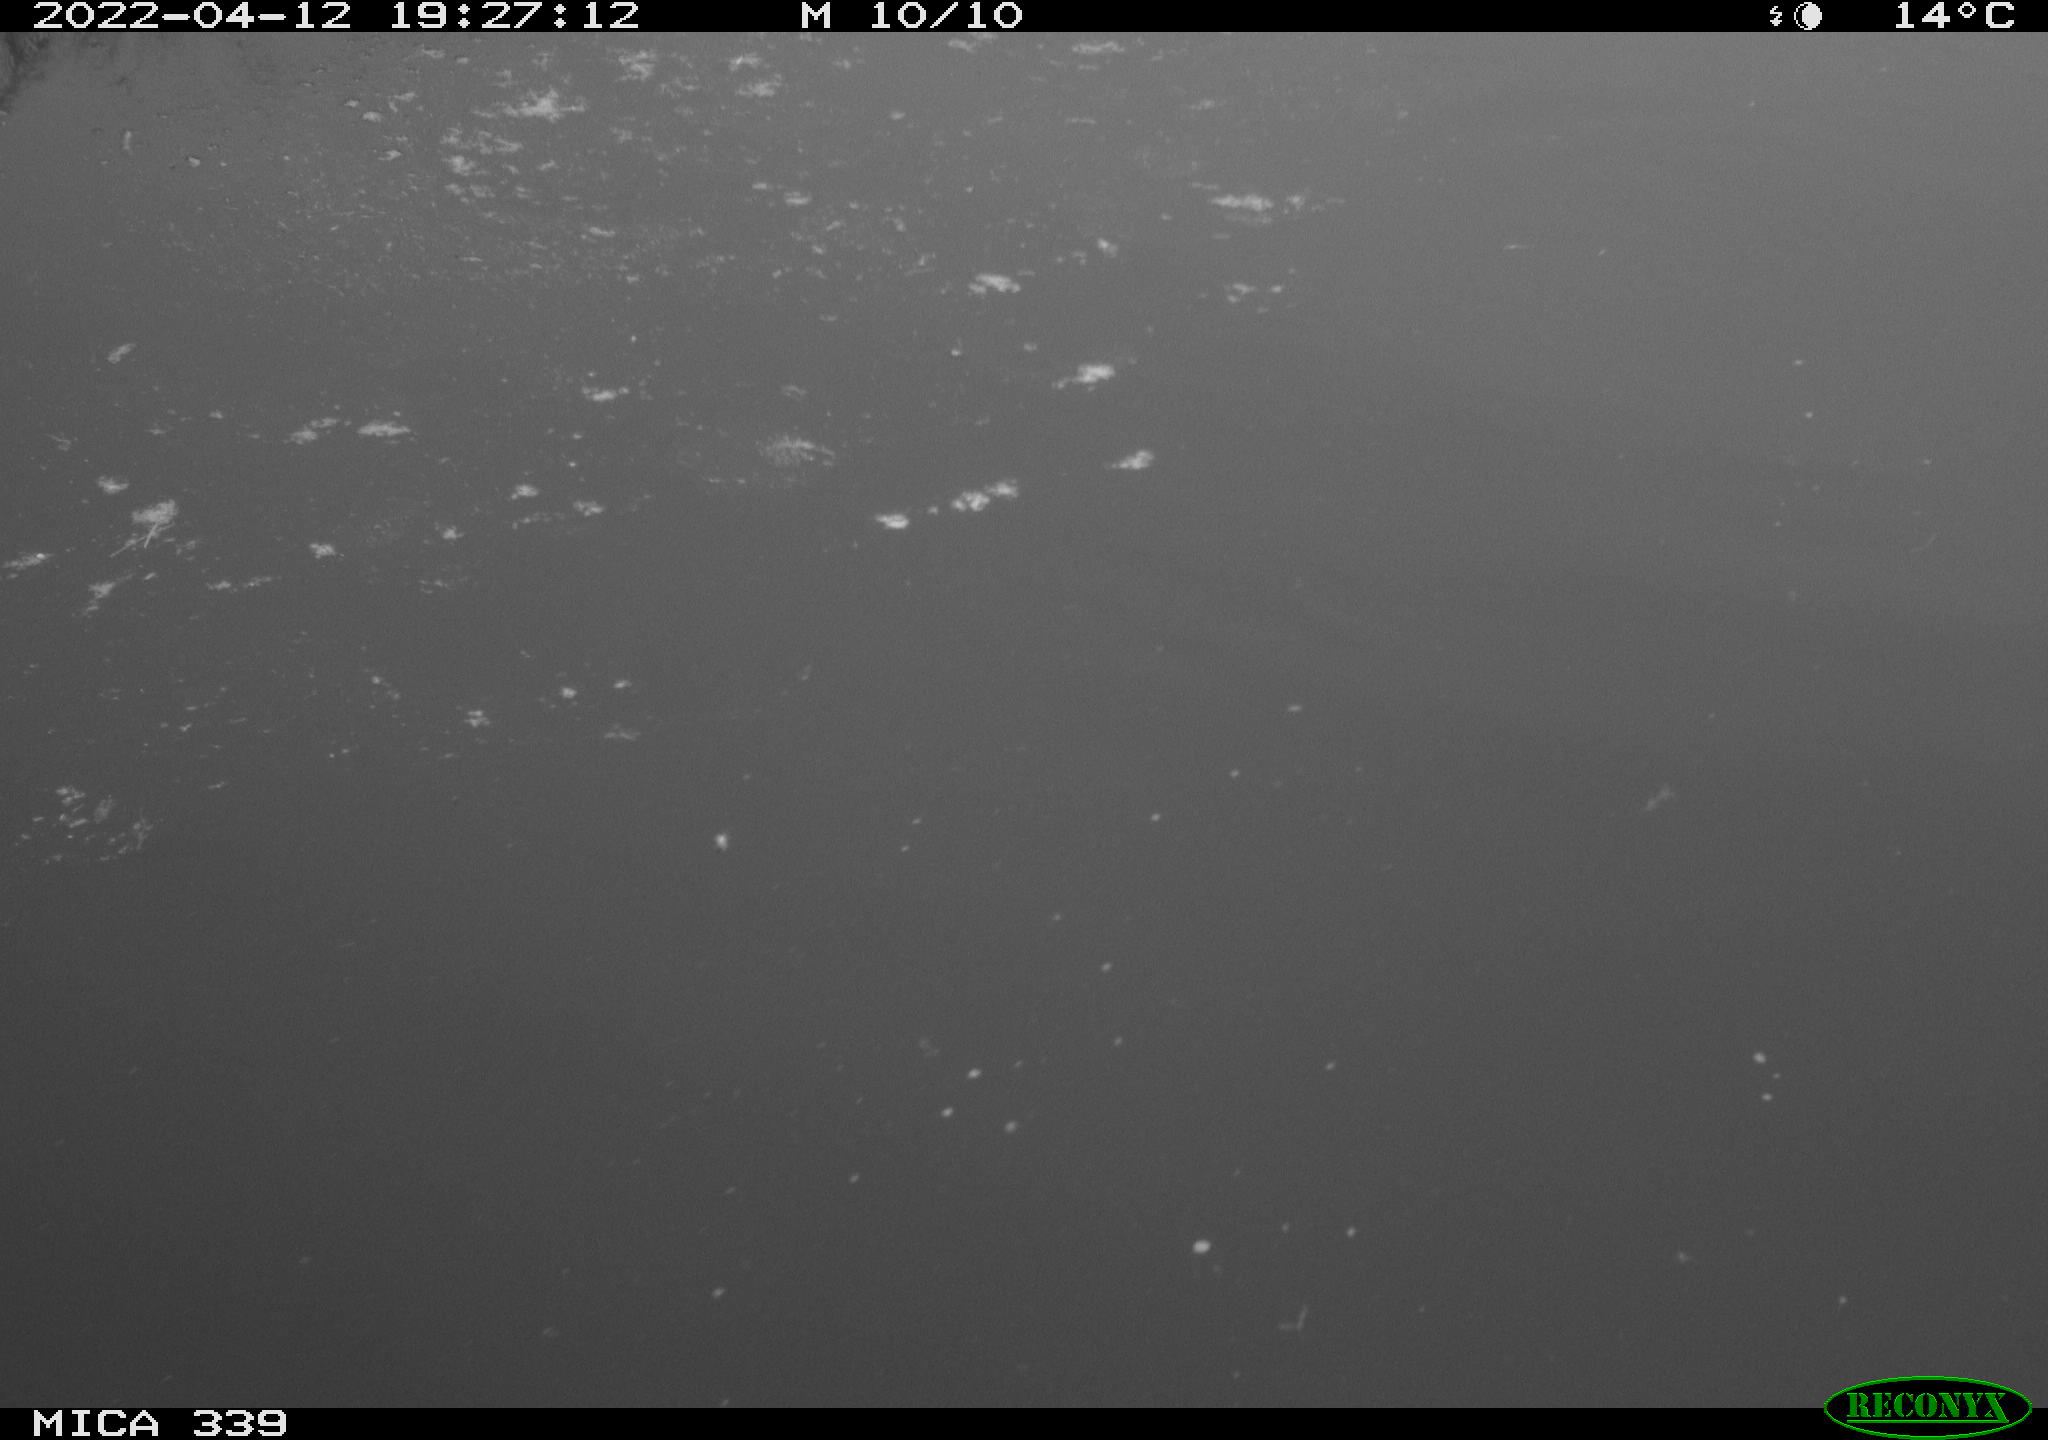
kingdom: Animalia
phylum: Chordata
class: Aves
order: Anseriformes
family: Anatidae
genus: Anas
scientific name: Anas platyrhynchos
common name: Mallard
